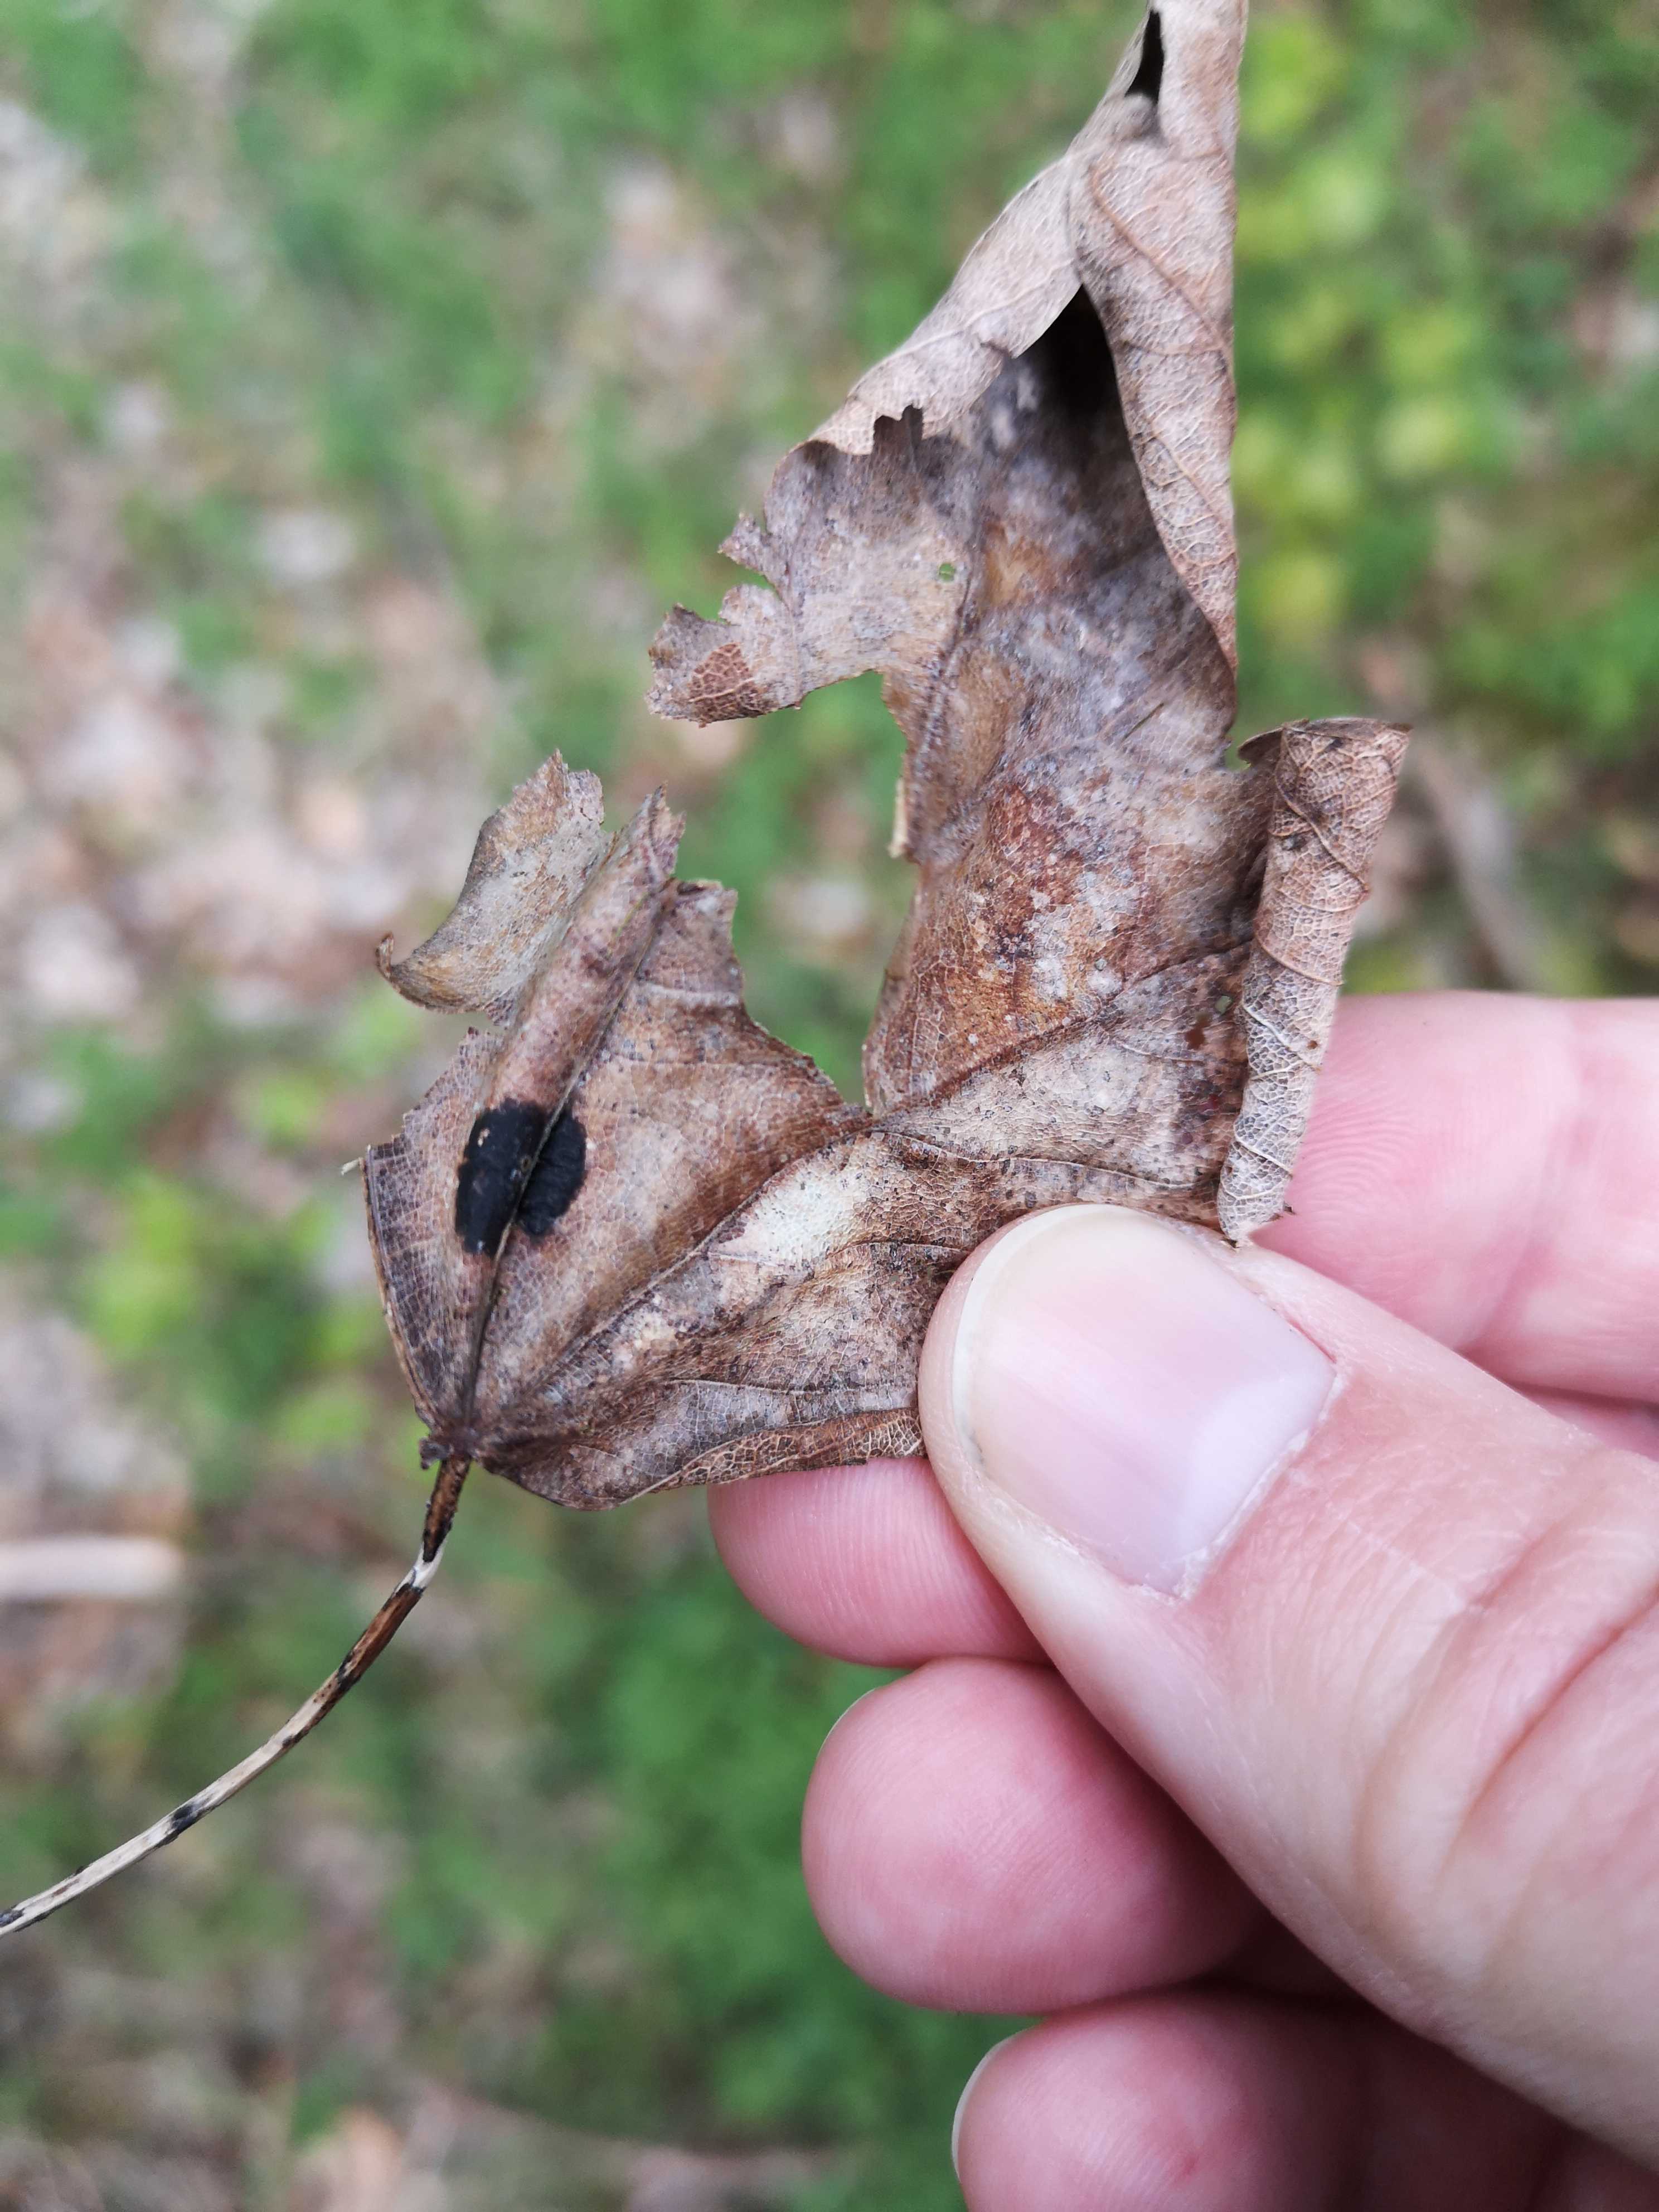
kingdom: Fungi
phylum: Ascomycota
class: Leotiomycetes
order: Rhytismatales
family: Rhytismataceae
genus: Rhytisma
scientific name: Rhytisma acerinum
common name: ahorn-rynkeplet
